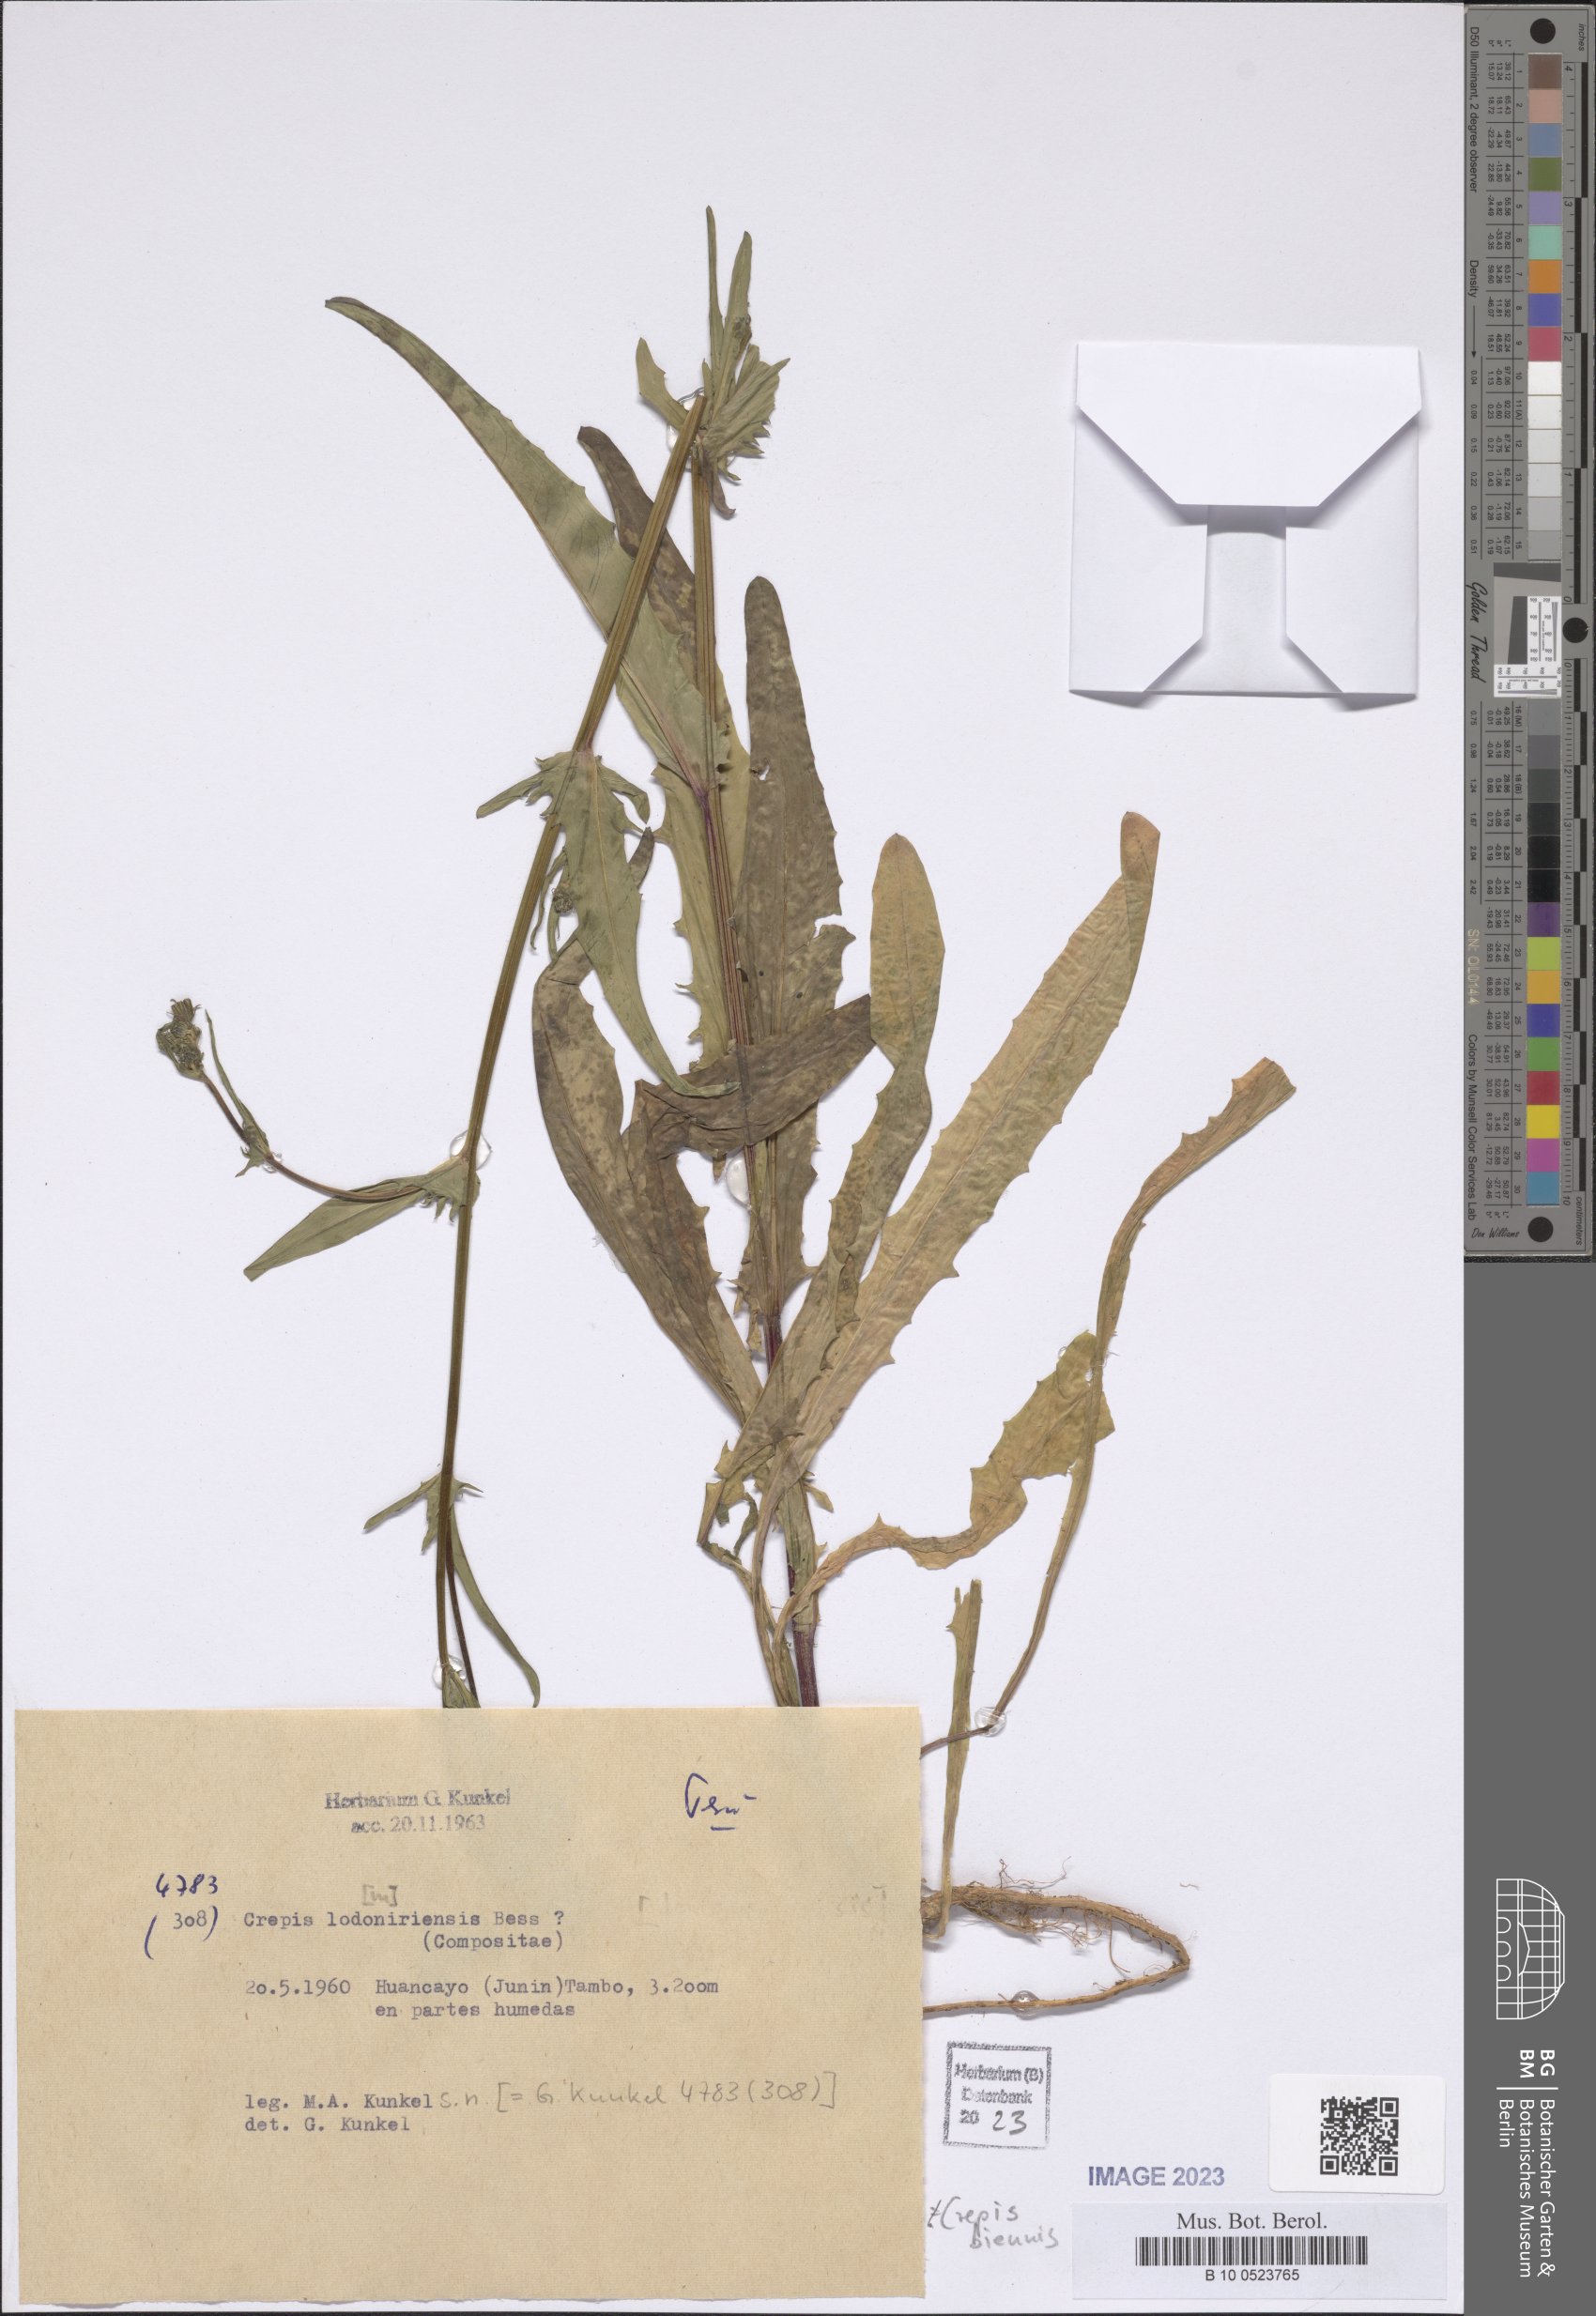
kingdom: Plantae
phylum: Tracheophyta
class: Magnoliopsida
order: Asterales
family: Asteraceae
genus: Crepis
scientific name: Crepis biennis
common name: Rough hawk's-beard
